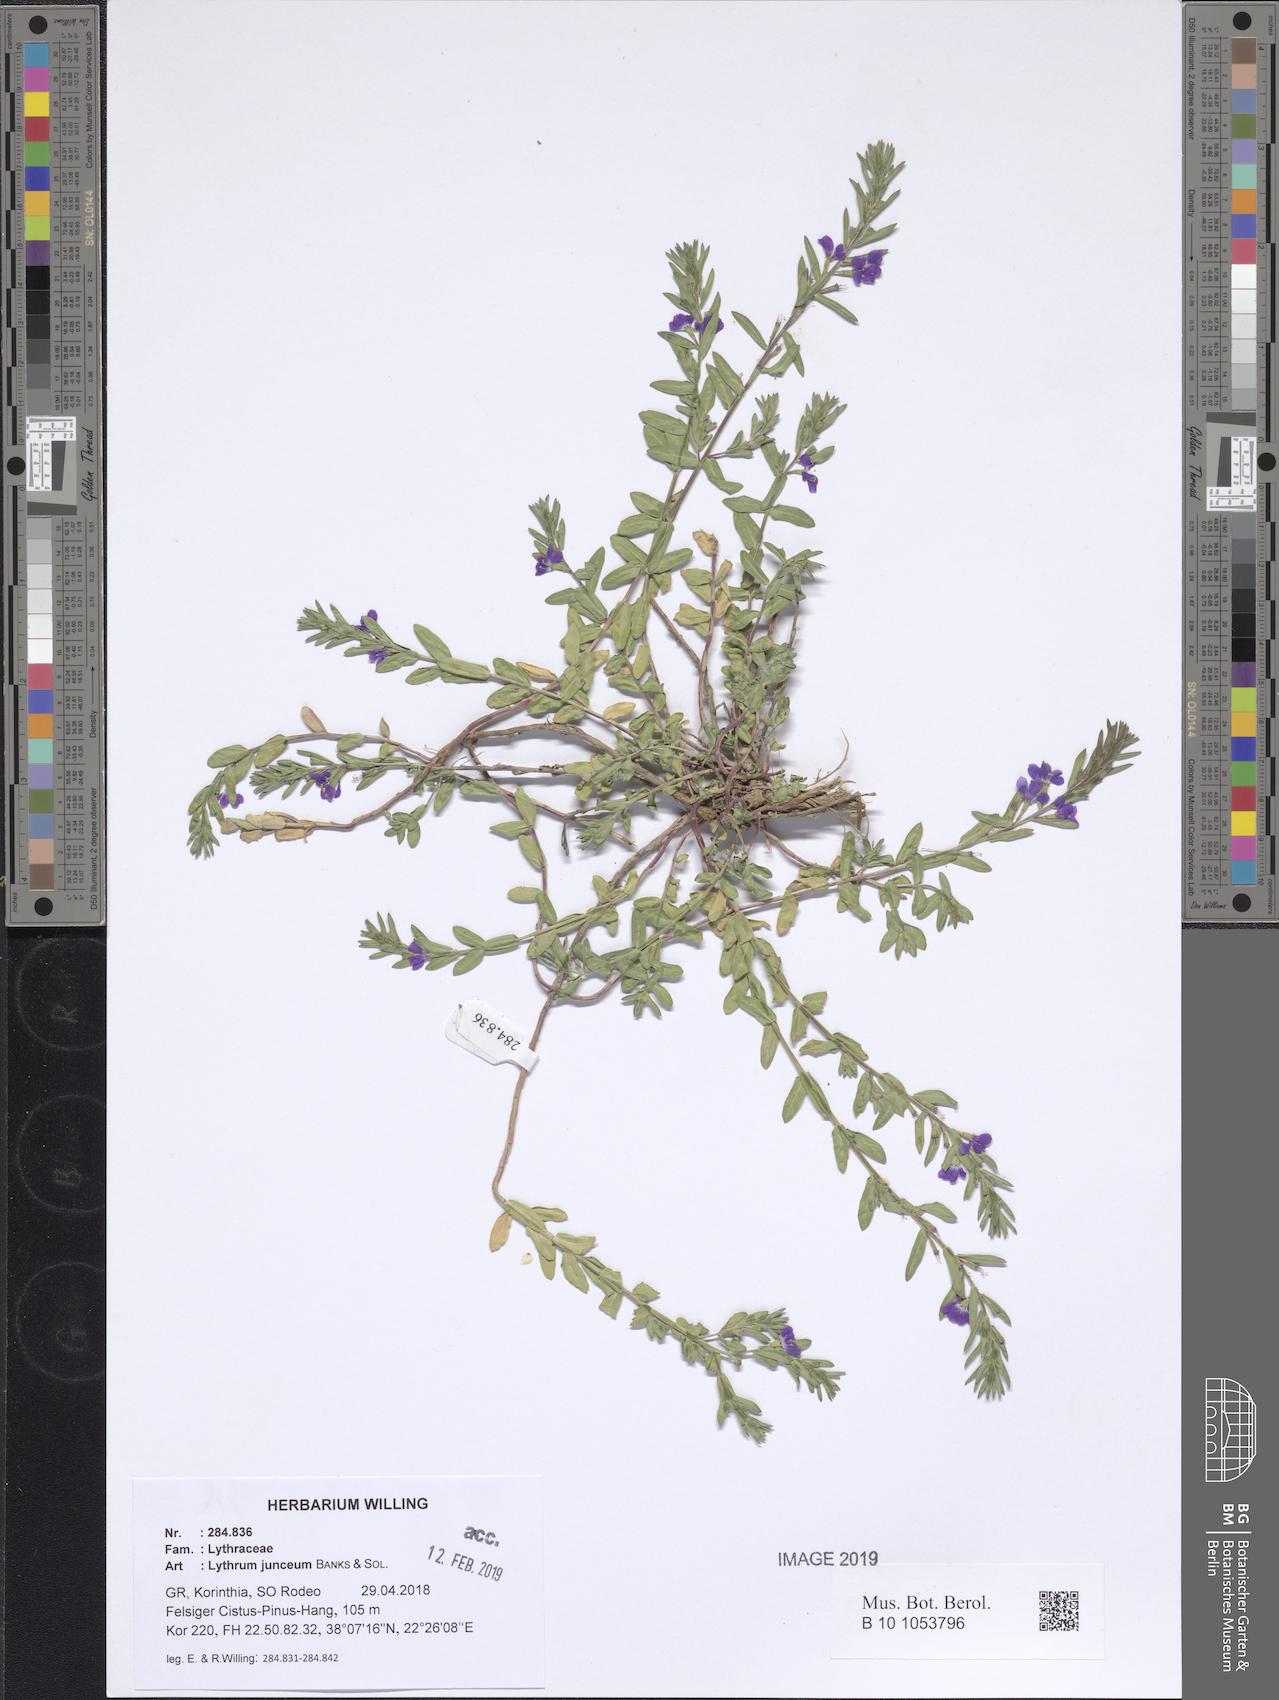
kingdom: Plantae
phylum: Tracheophyta
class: Magnoliopsida
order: Myrtales
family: Lythraceae
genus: Lythrum
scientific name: Lythrum junceum
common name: False grass-poly
